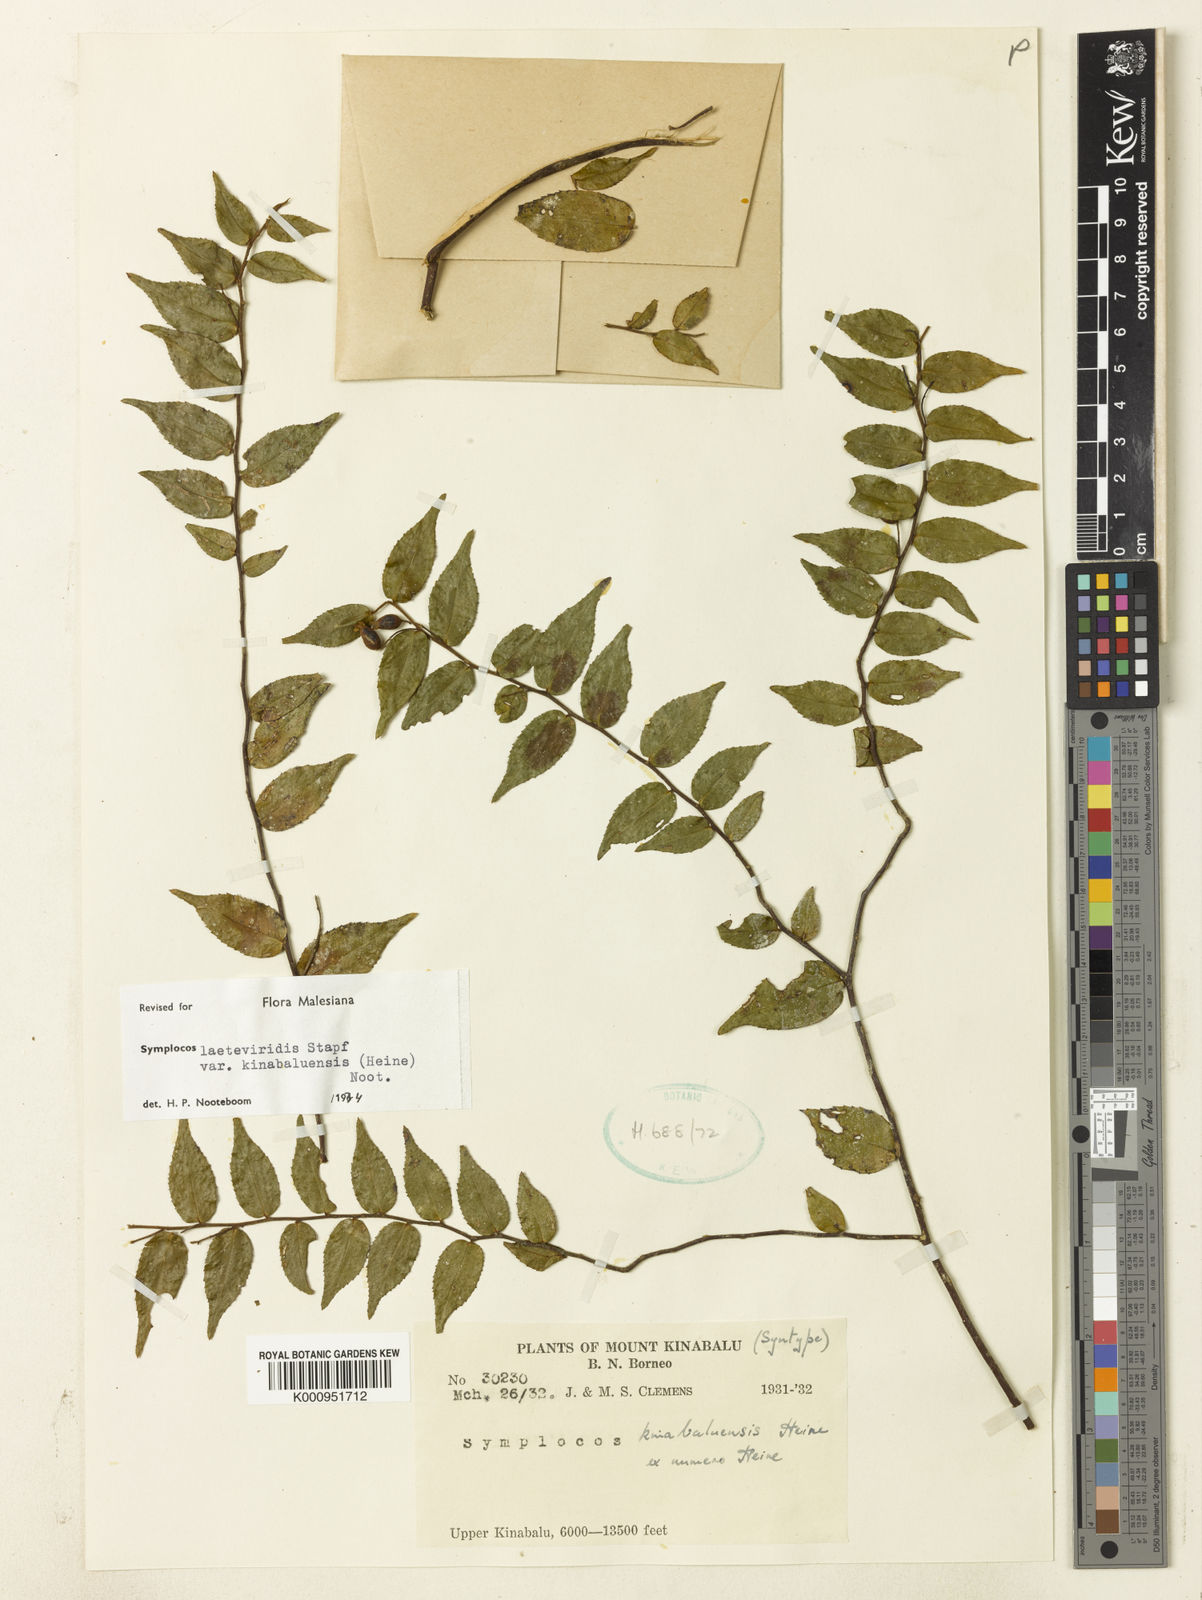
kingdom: Plantae
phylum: Tracheophyta
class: Magnoliopsida
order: Ericales
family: Symplocaceae
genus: Symplocos
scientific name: Symplocos laeteviridis
